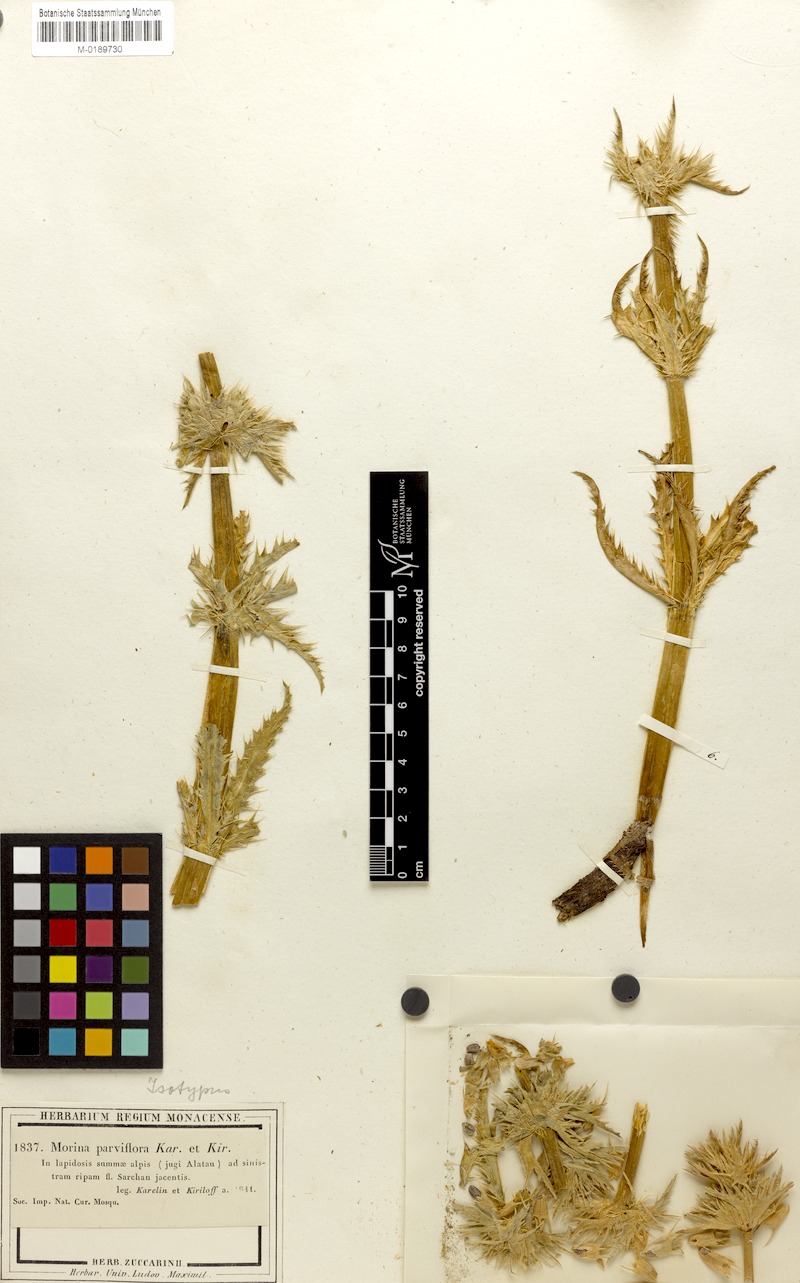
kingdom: Plantae
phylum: Tracheophyta
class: Magnoliopsida
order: Dipsacales
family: Caprifoliaceae
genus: Cryptothladia
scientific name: Cryptothladia parviflora
